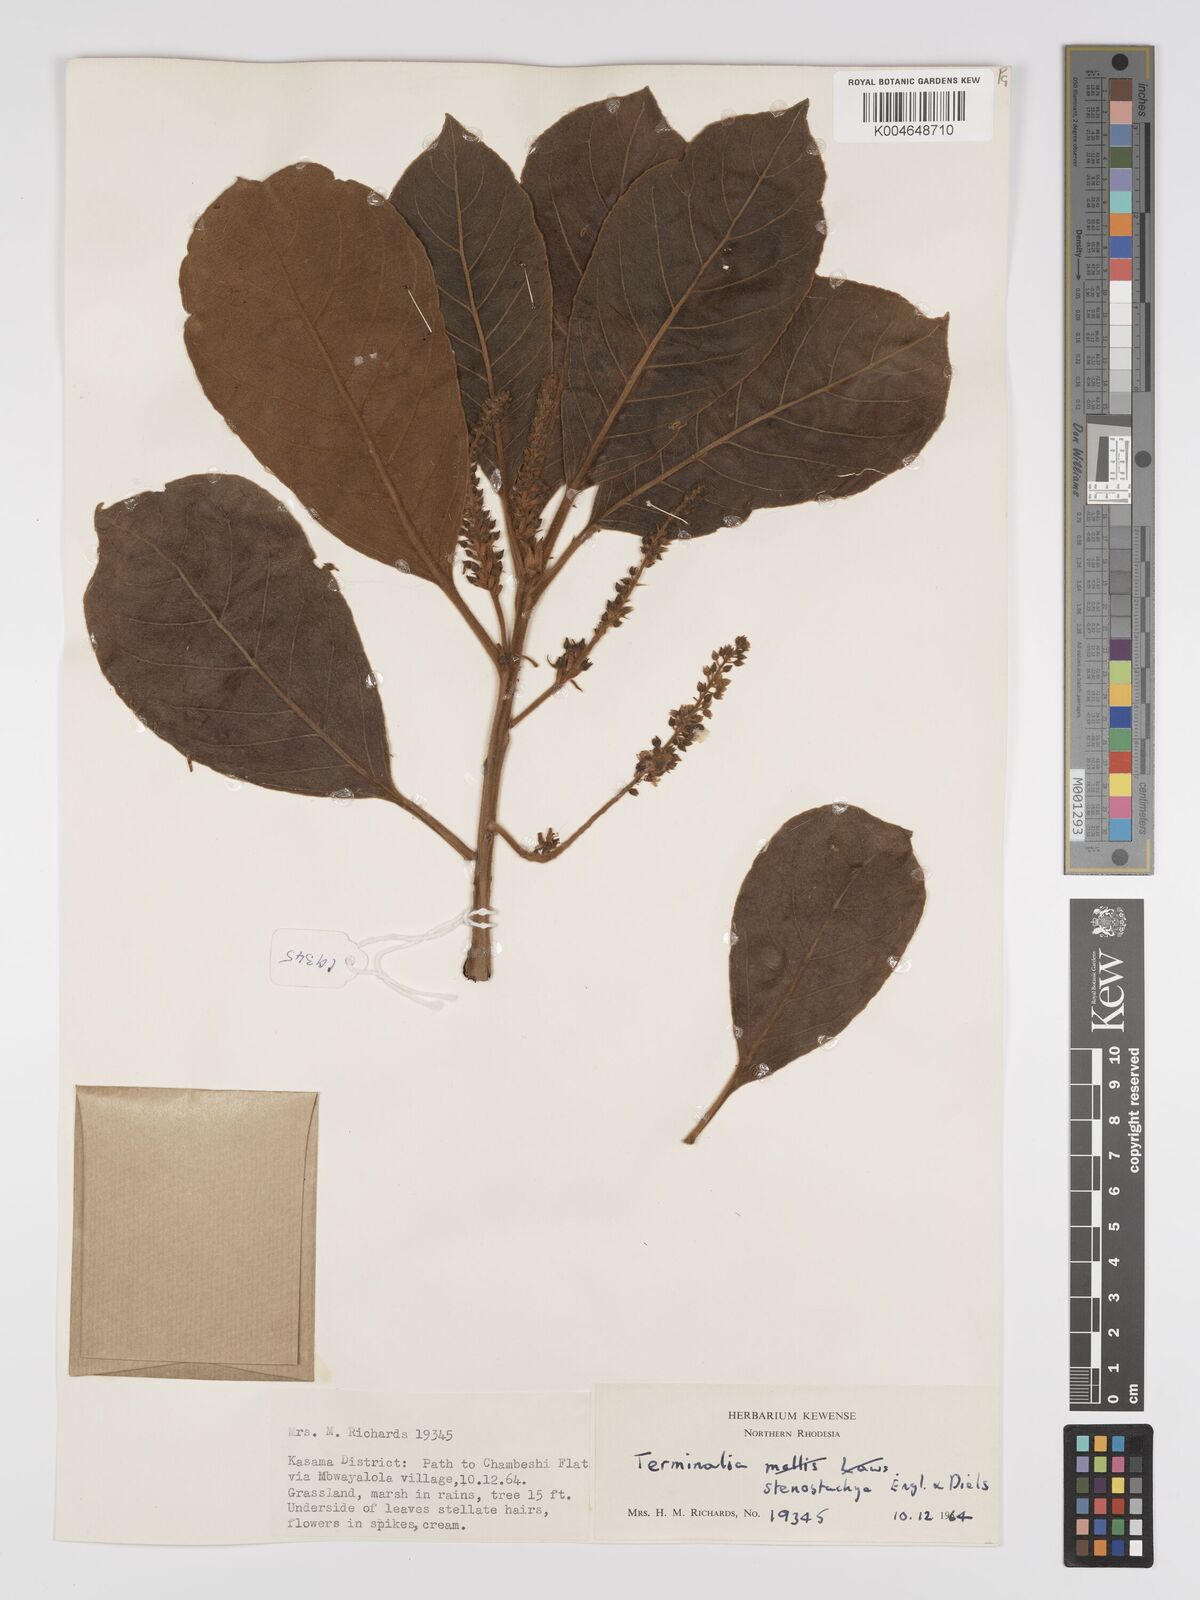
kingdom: Plantae
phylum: Tracheophyta
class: Magnoliopsida
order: Myrtales
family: Combretaceae
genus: Terminalia
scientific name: Terminalia stenostachya
